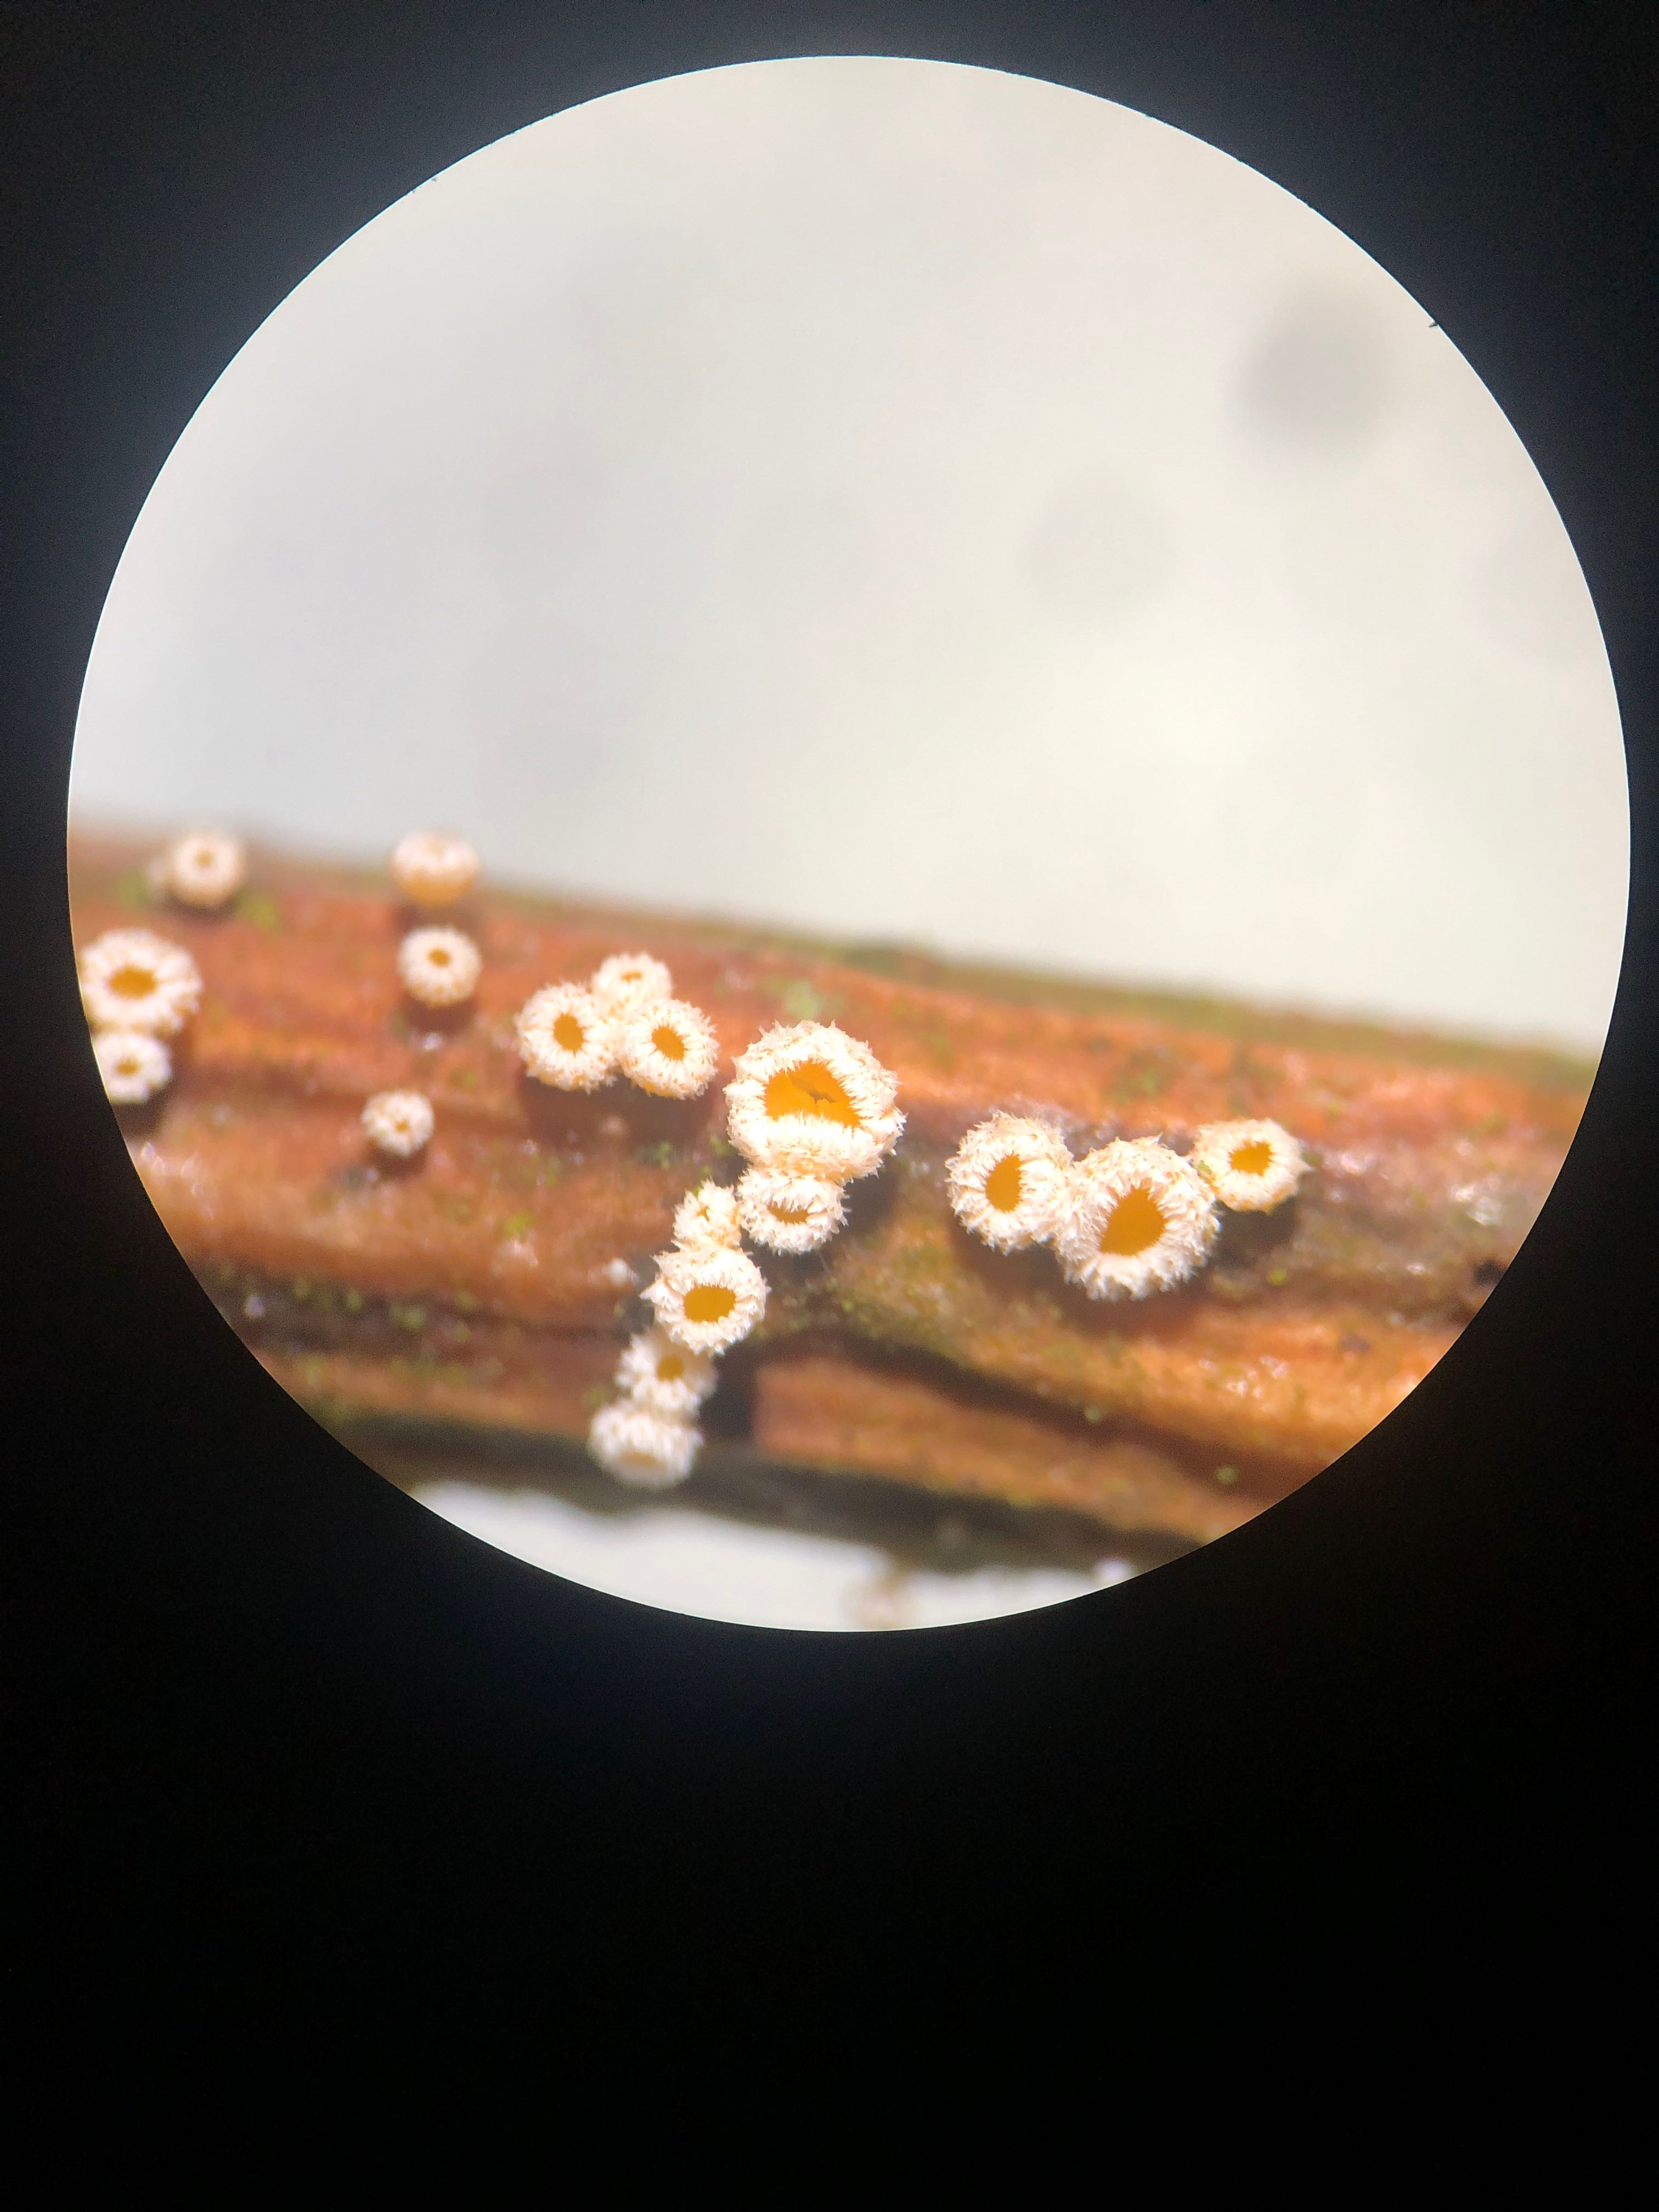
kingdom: Fungi
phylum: Ascomycota
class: Leotiomycetes
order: Helotiales
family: Lachnaceae
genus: Capitotricha
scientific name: Capitotricha bicolor
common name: prægtig frynseskive
